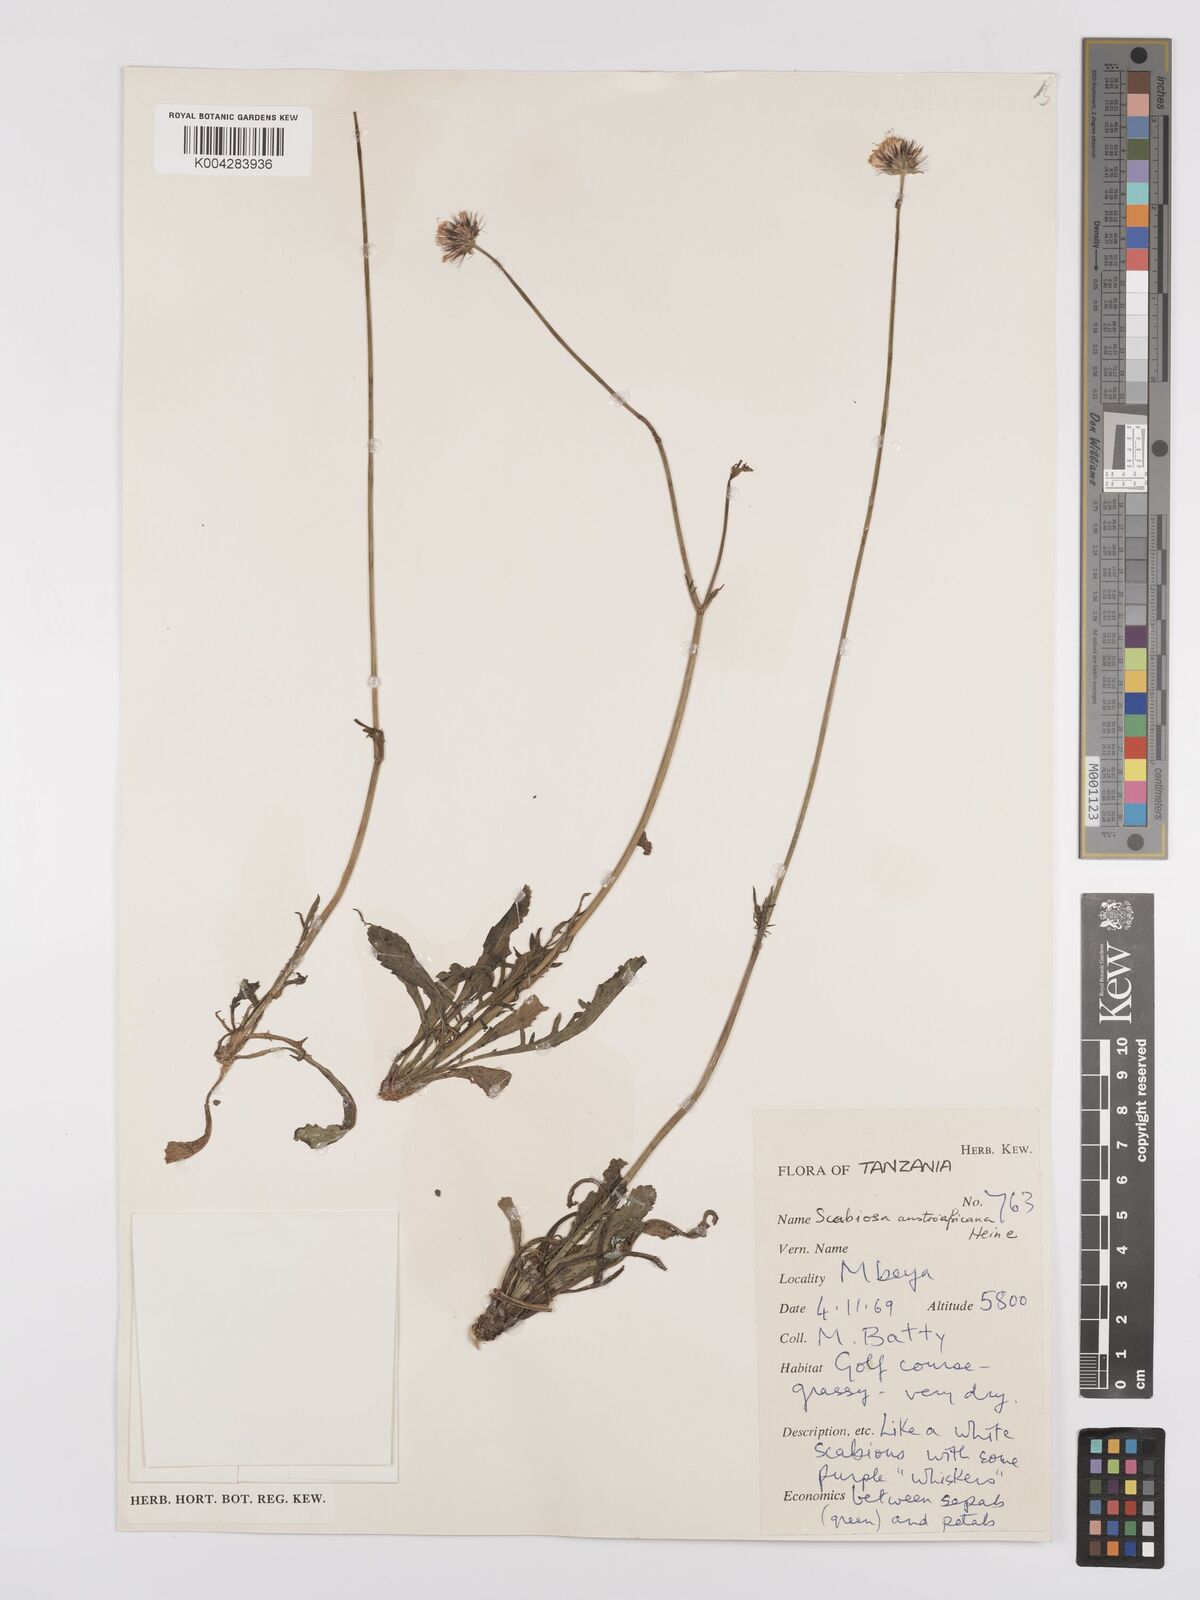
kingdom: Plantae
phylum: Tracheophyta
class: Magnoliopsida
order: Dipsacales
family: Caprifoliaceae
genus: Scabiosa
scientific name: Scabiosa austroafricana
